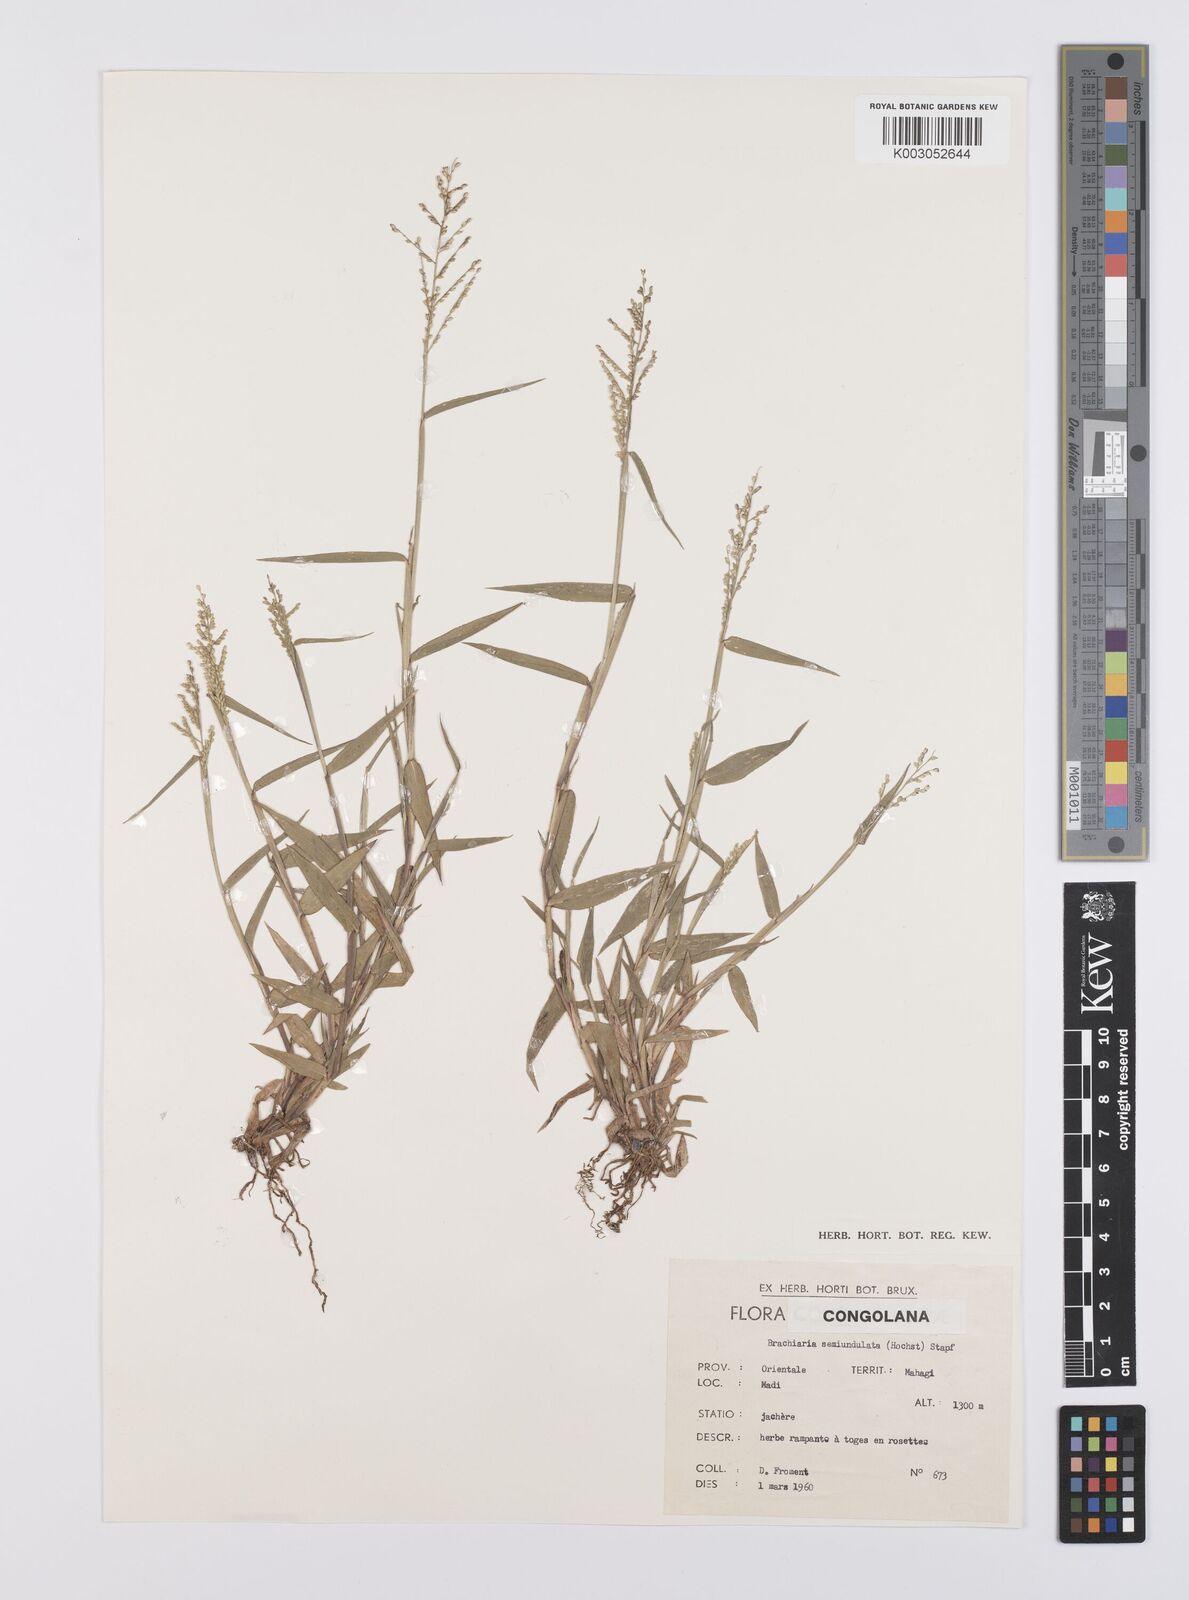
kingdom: Plantae
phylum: Tracheophyta
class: Liliopsida
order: Poales
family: Poaceae
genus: Urochloa
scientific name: Urochloa comata
